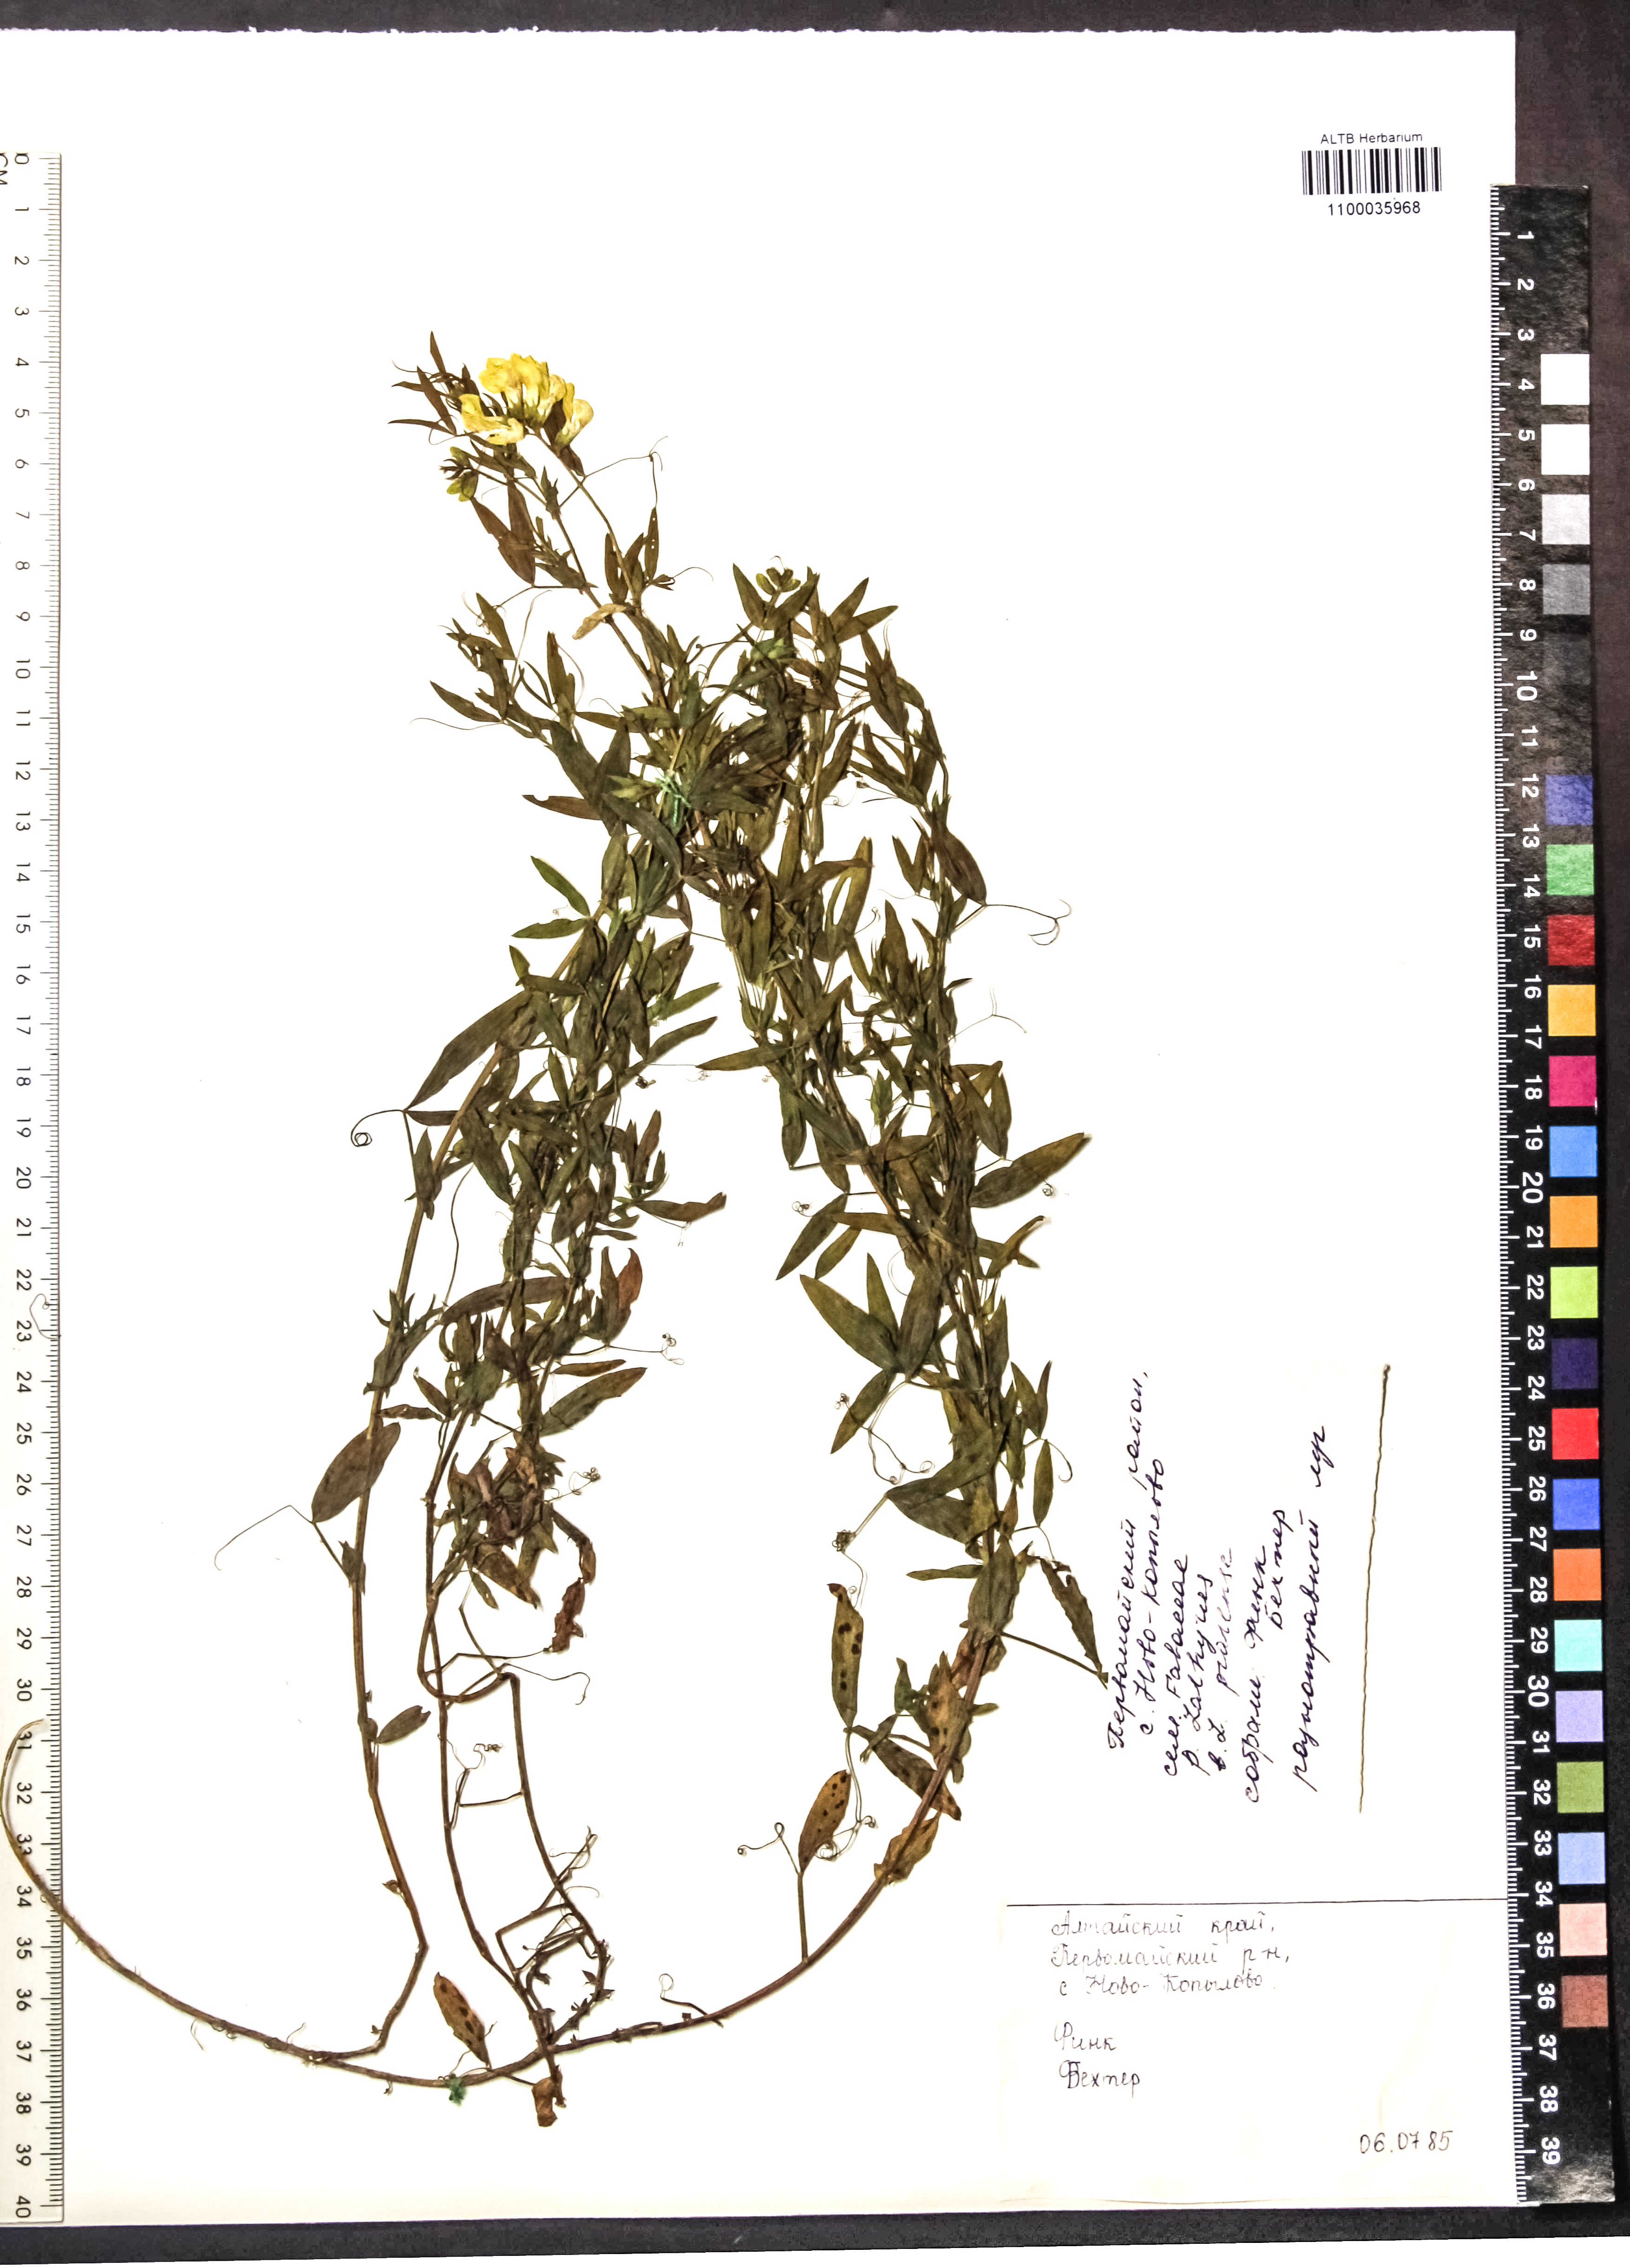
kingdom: Plantae
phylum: Tracheophyta
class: Magnoliopsida
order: Fabales
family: Fabaceae
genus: Lathyrus
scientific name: Lathyrus pratensis
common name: Meadow vetchling
